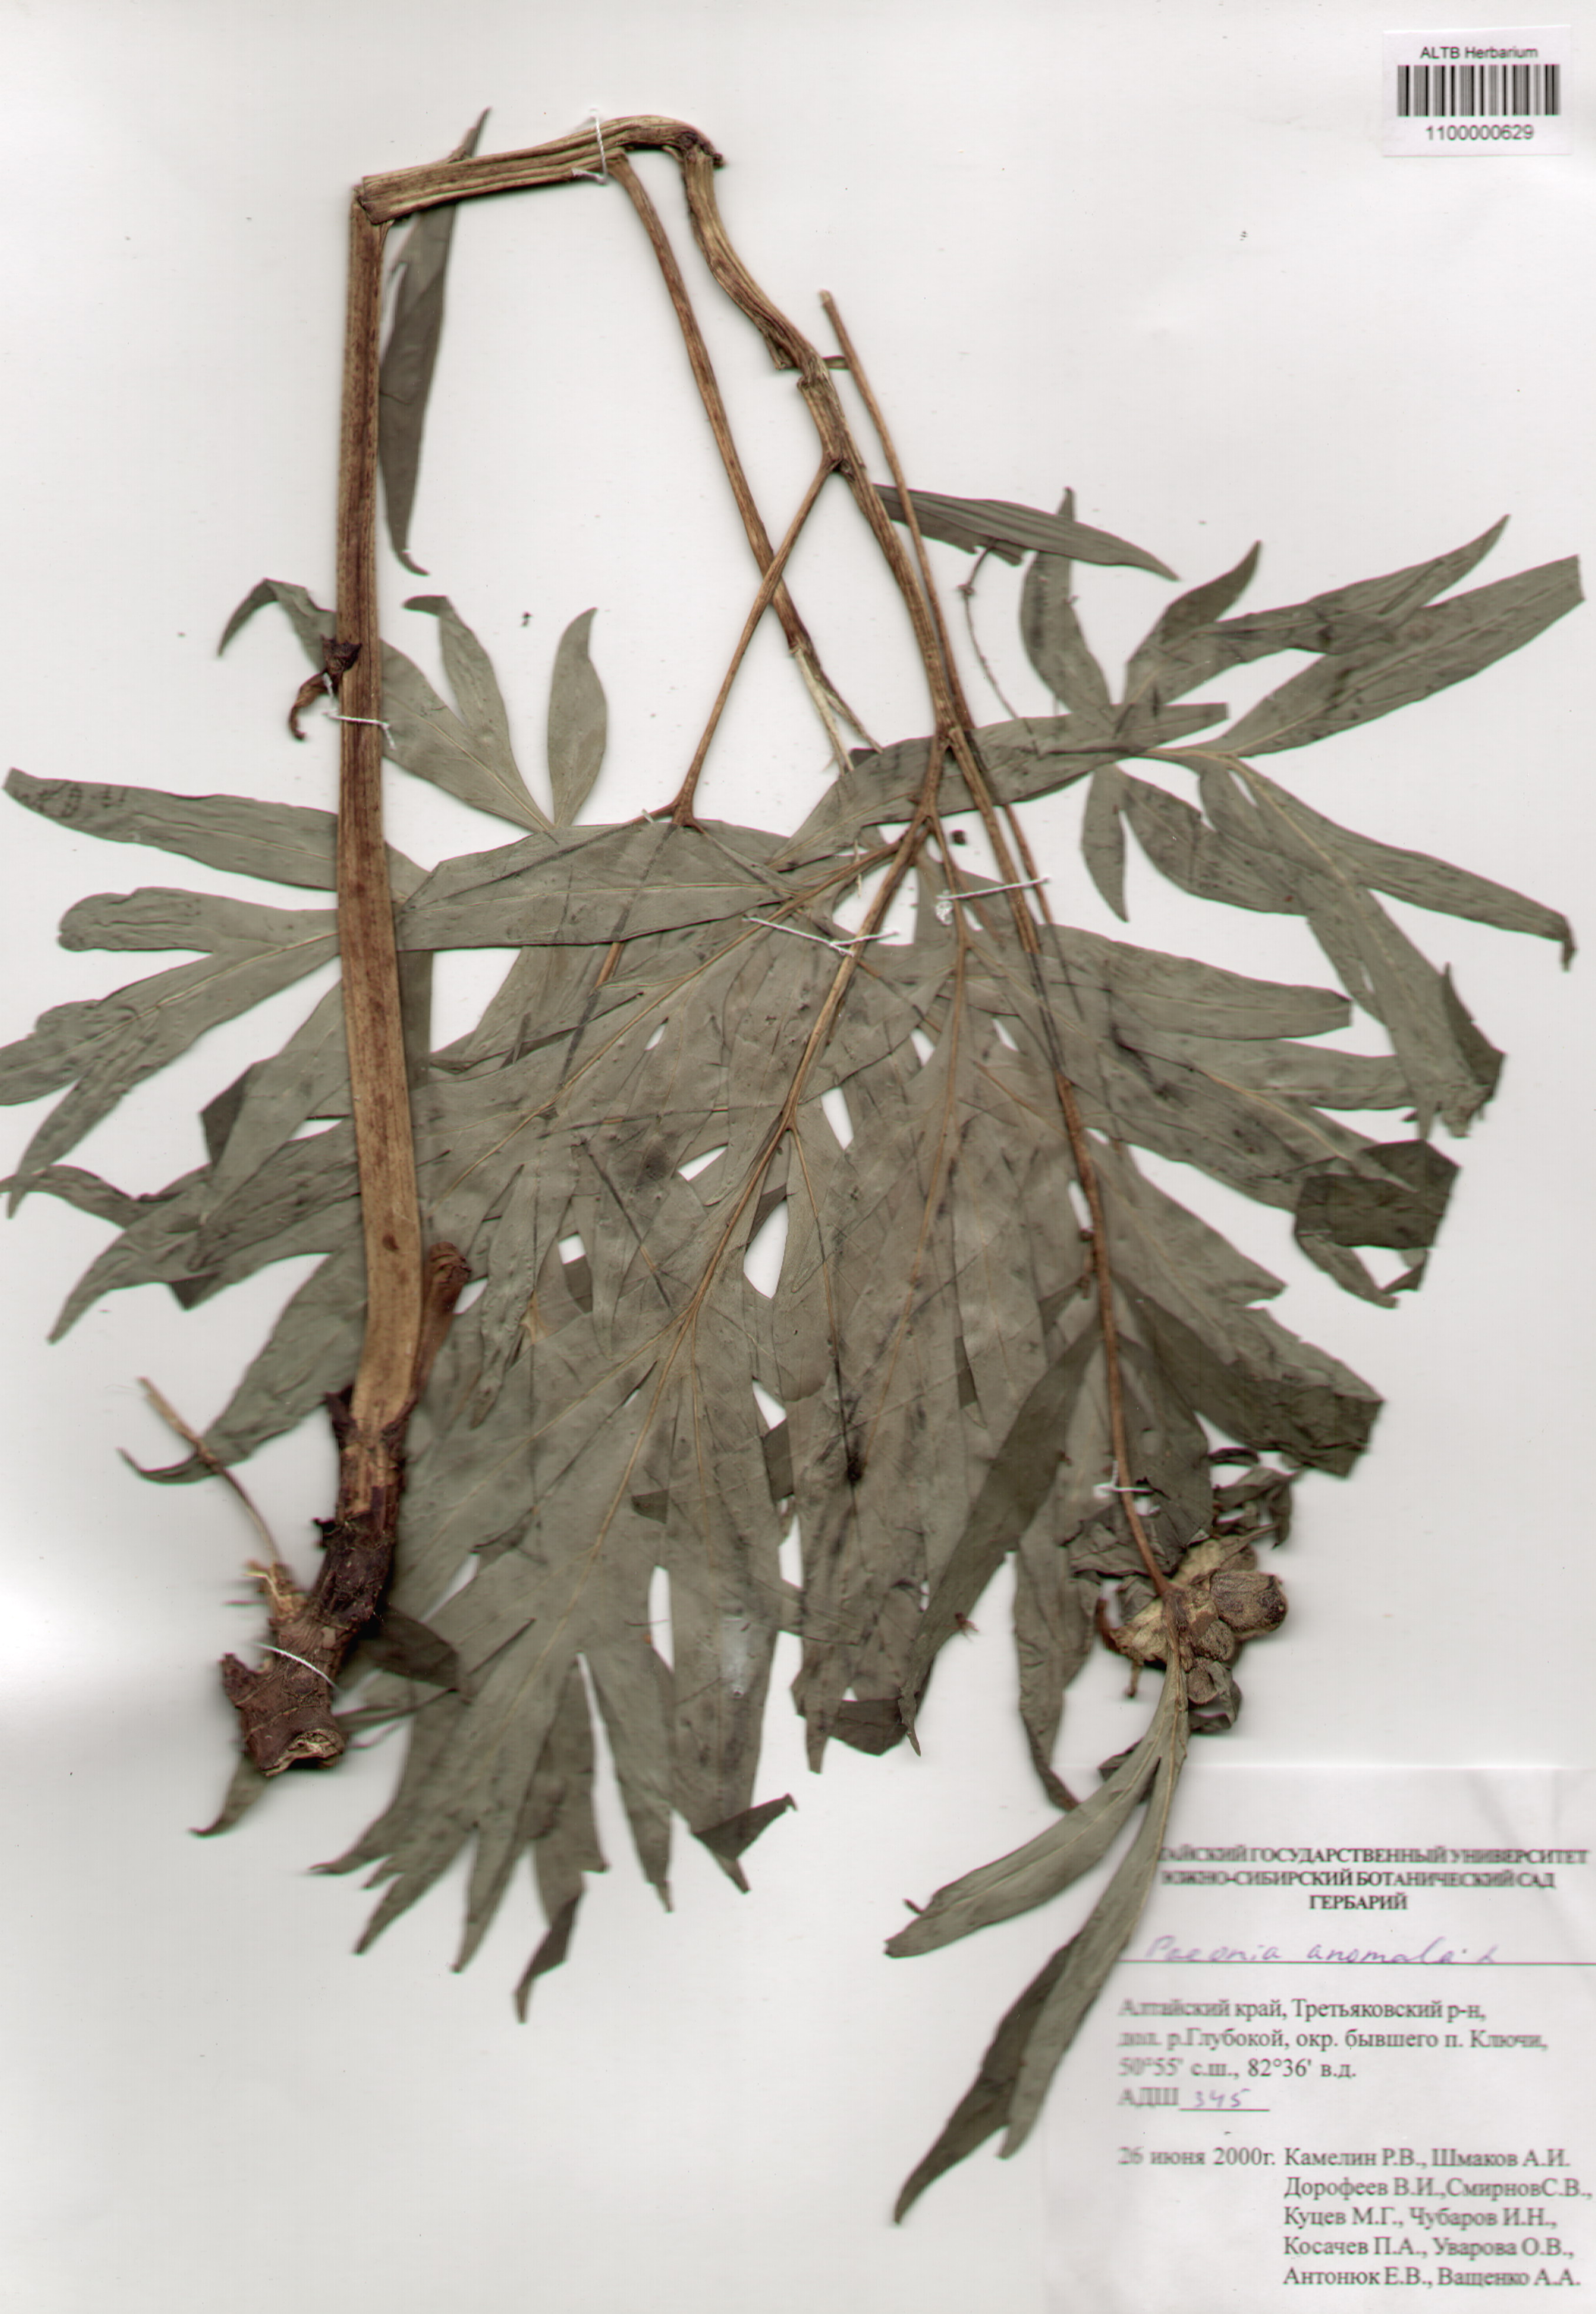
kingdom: Plantae
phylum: Tracheophyta
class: Magnoliopsida
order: Saxifragales
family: Paeoniaceae
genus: Paeonia
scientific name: Paeonia anomala
